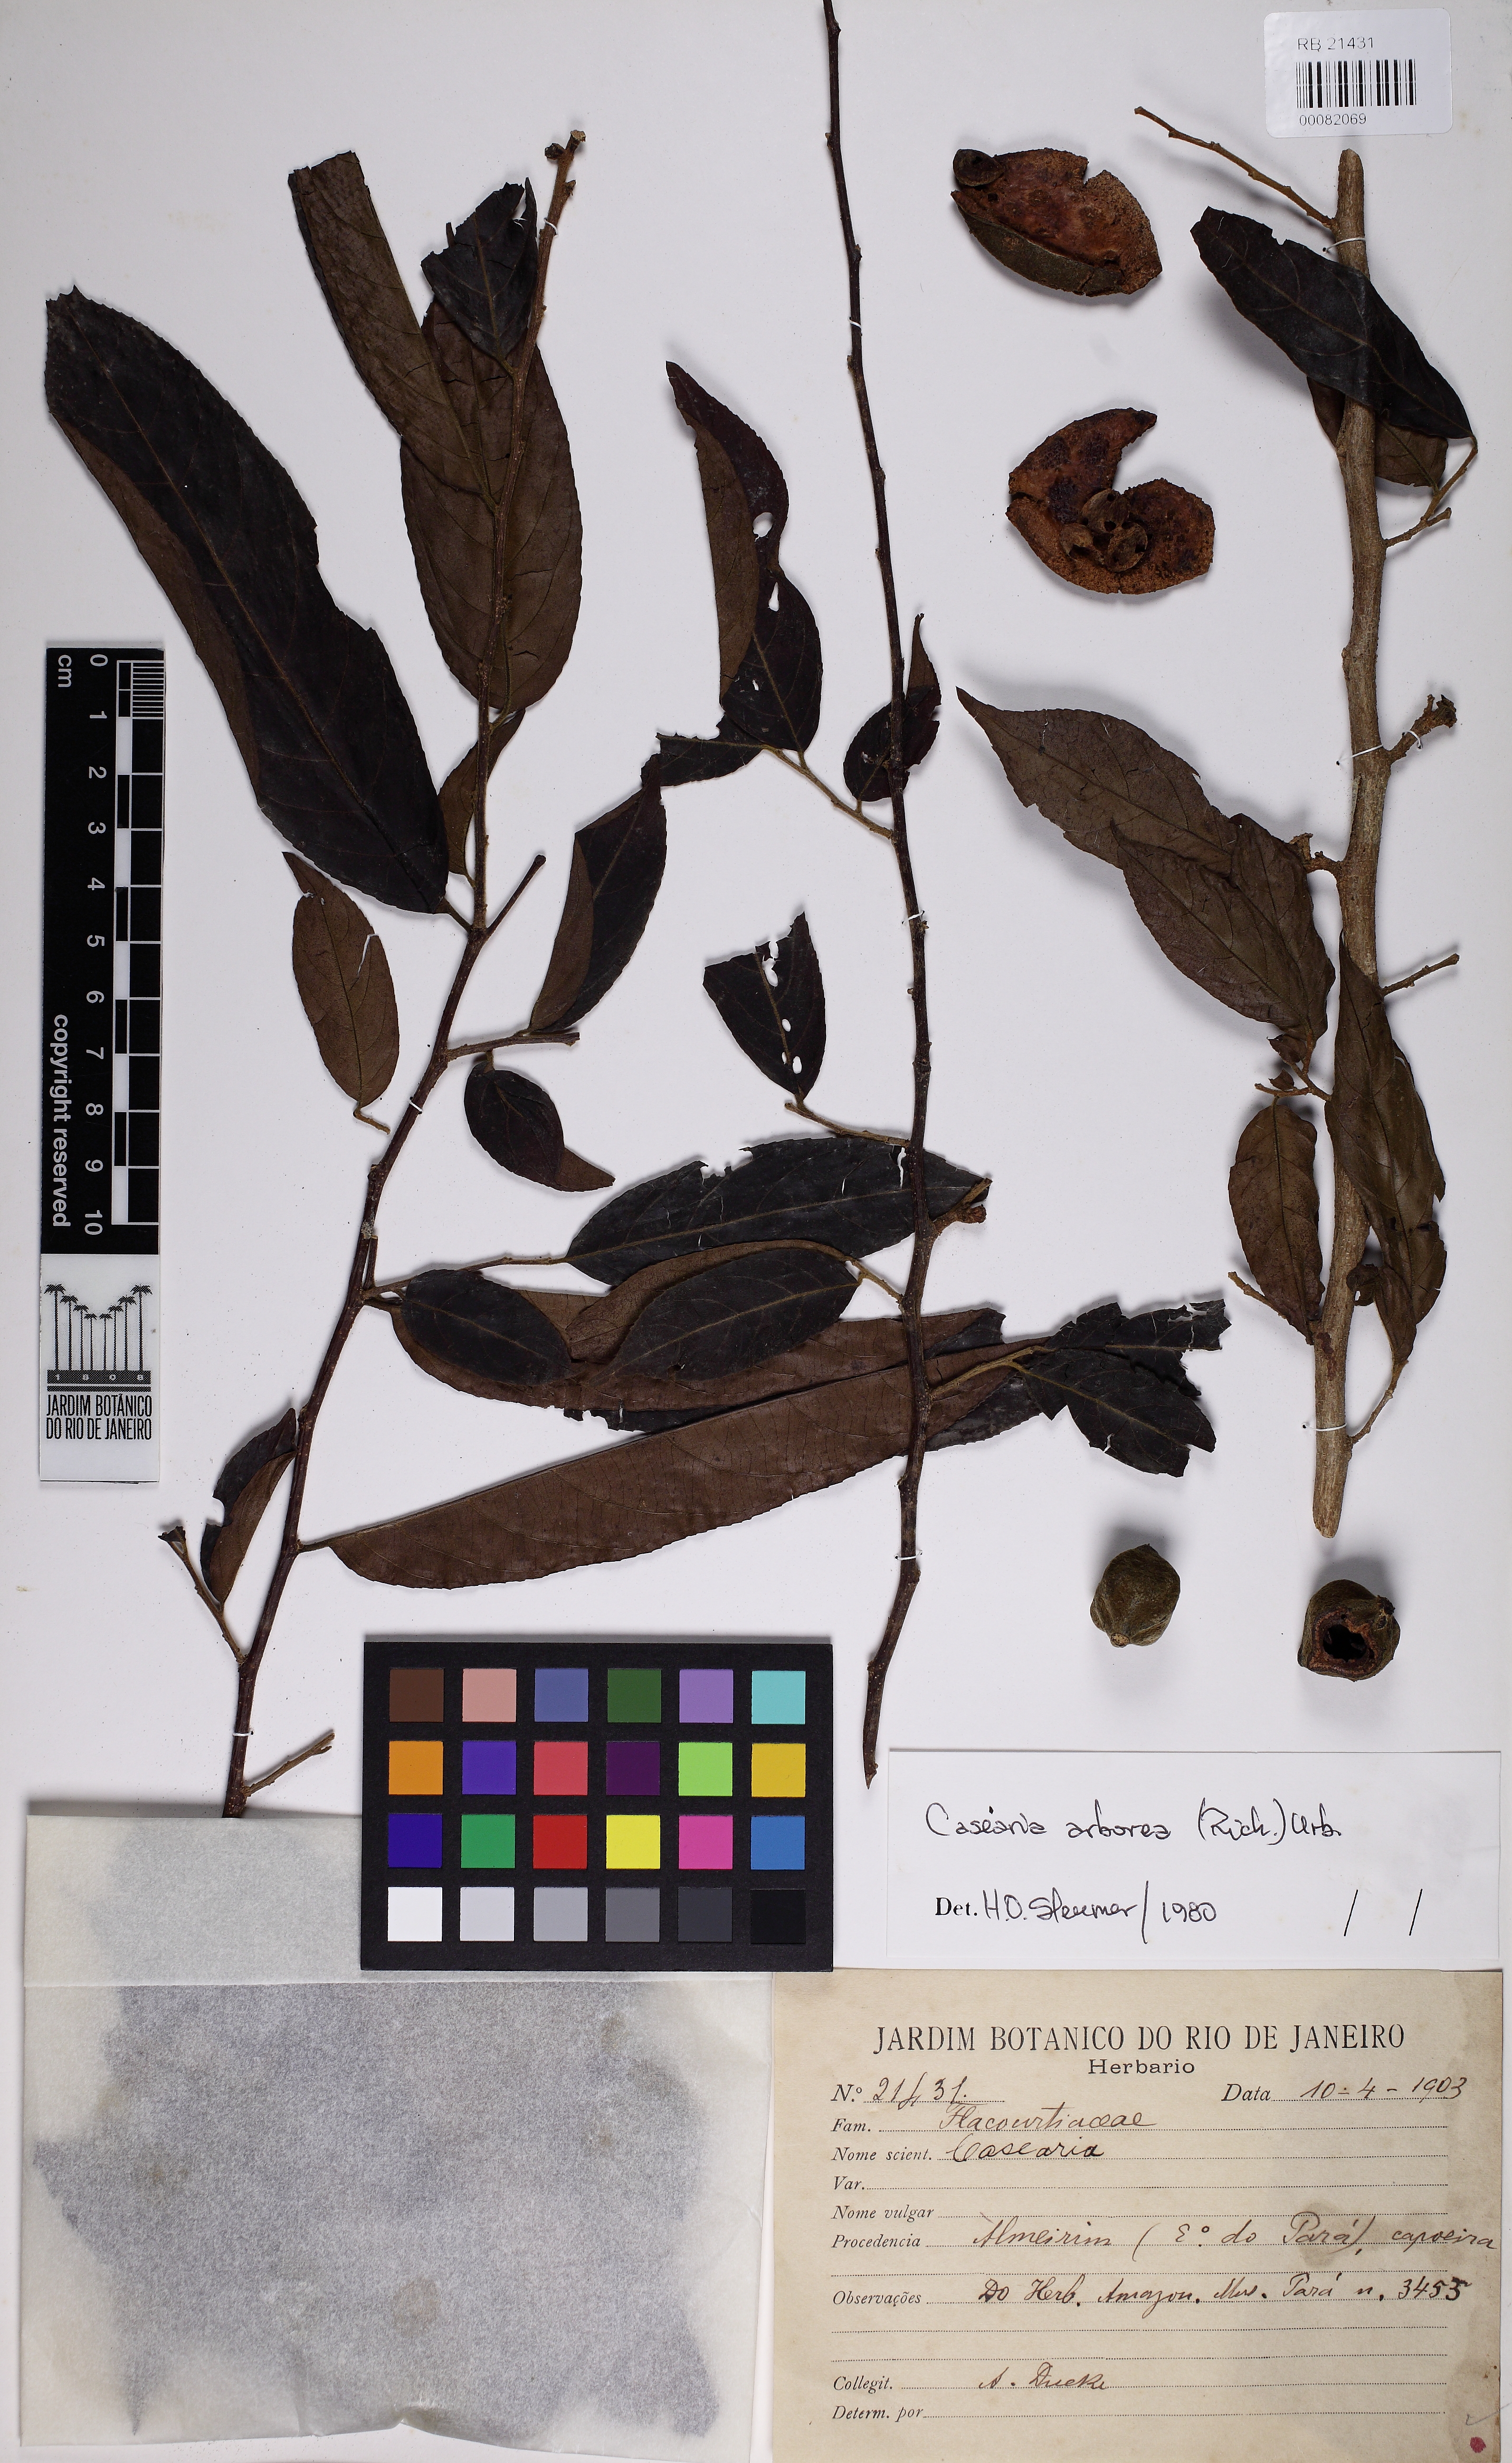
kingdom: Plantae
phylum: Tracheophyta
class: Magnoliopsida
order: Malpighiales
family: Salicaceae
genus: Casearia
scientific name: Casearia
